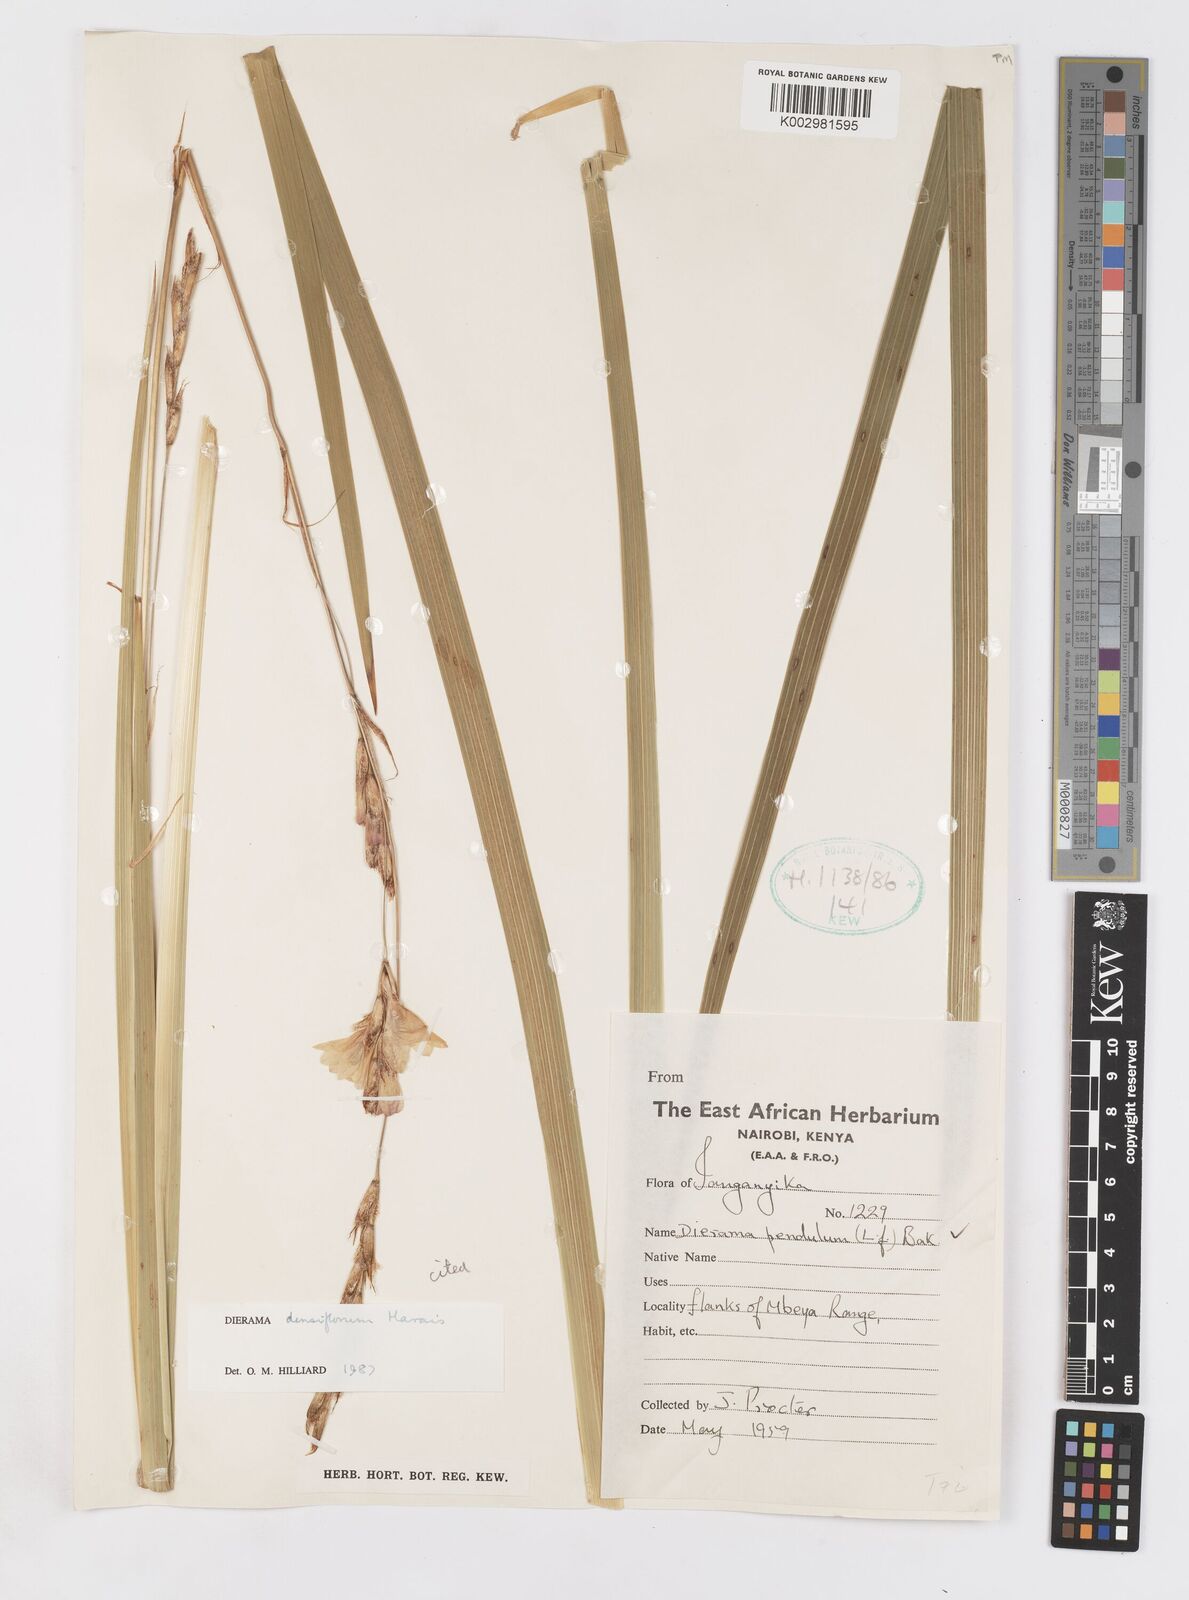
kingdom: Plantae
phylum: Tracheophyta
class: Liliopsida
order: Asparagales
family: Iridaceae
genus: Dierama
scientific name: Dierama densiflorum
